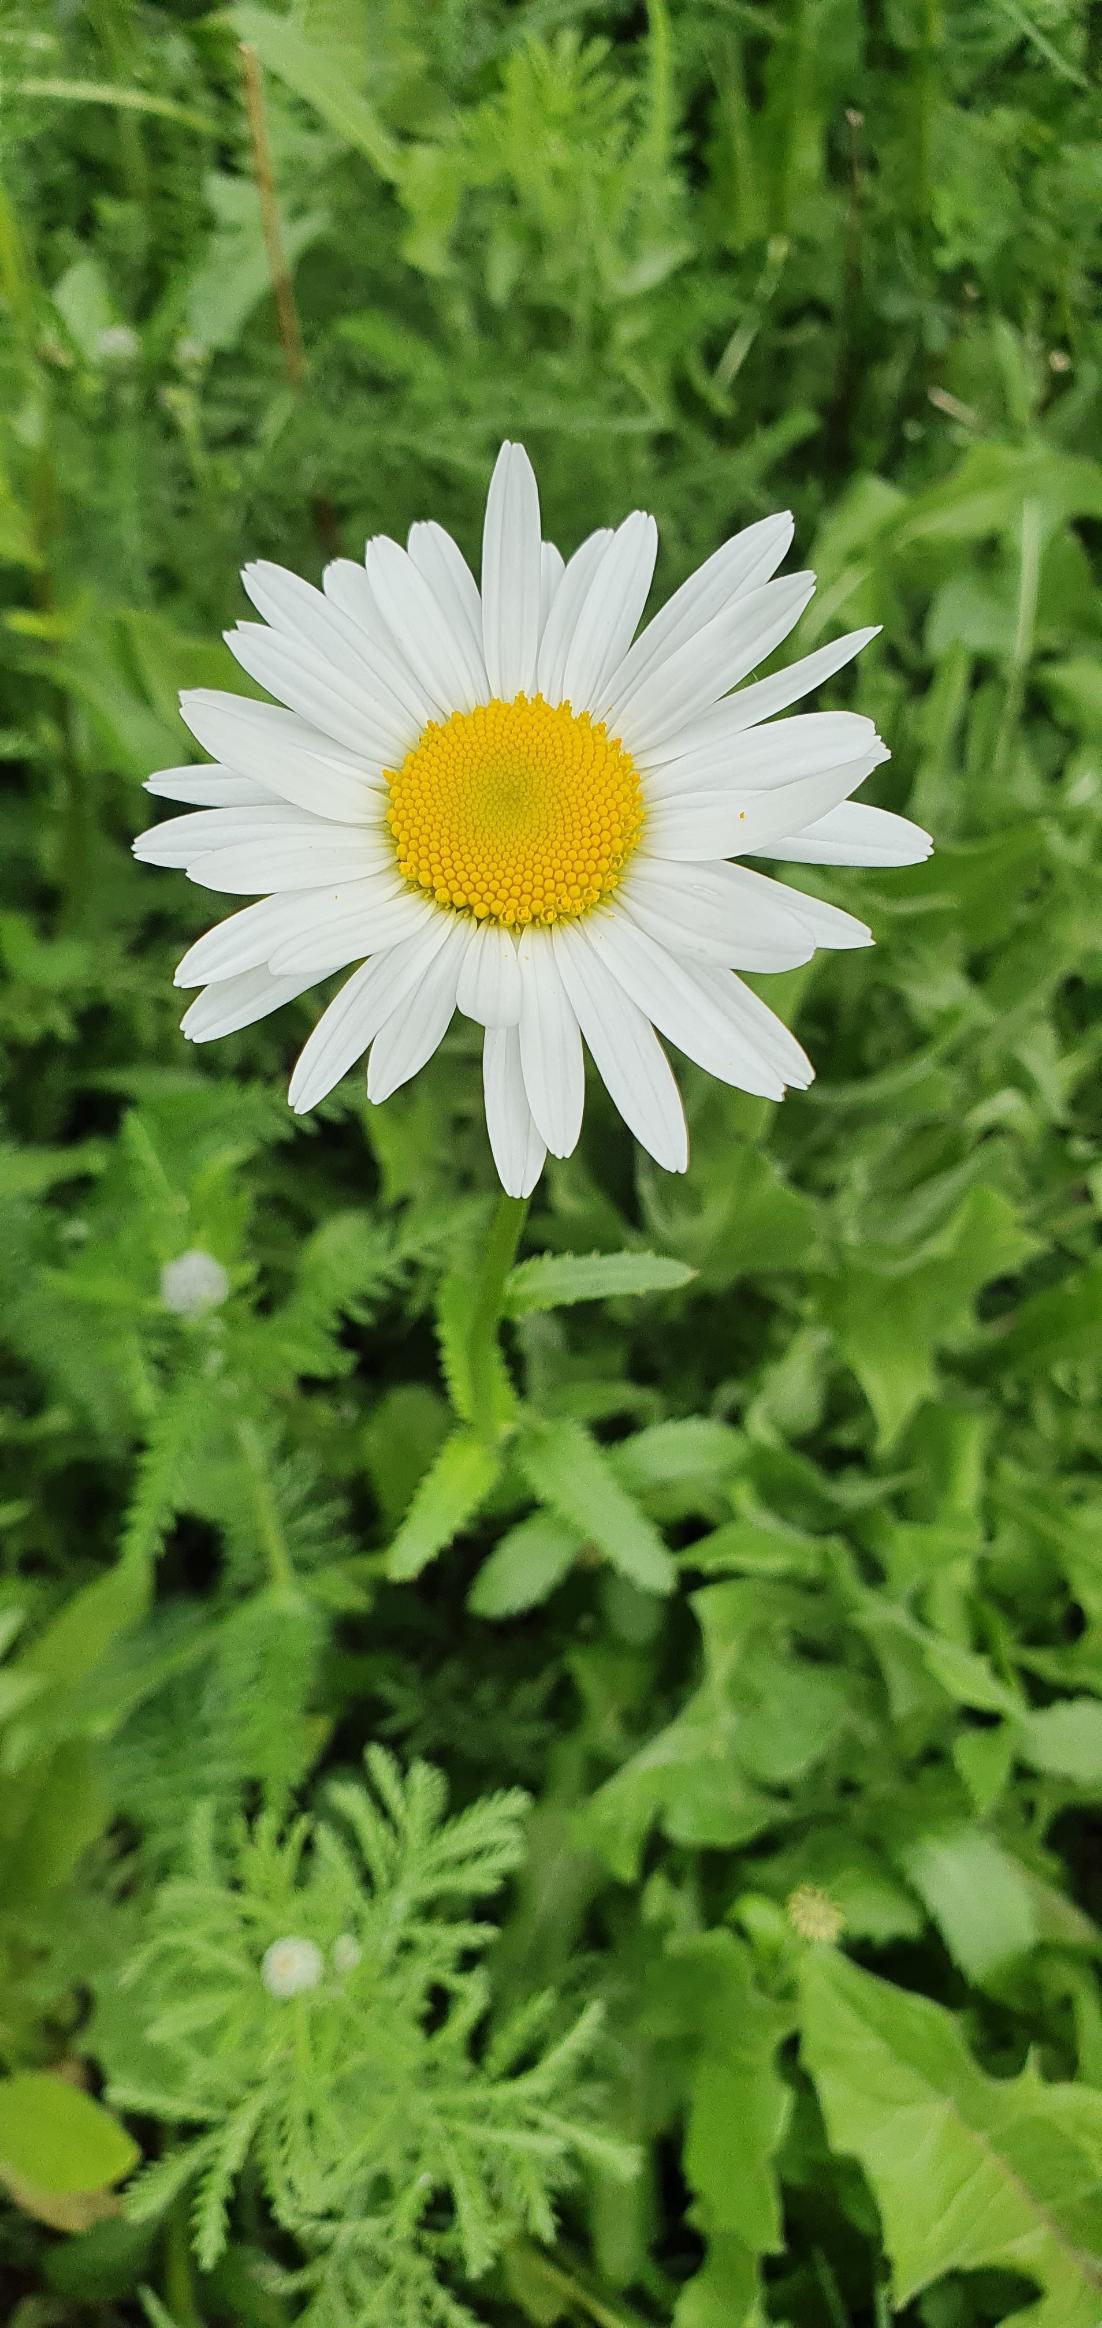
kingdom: Plantae
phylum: Tracheophyta
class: Magnoliopsida
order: Asterales
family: Asteraceae
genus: Leucanthemum
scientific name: Leucanthemum vulgare
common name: Hvid okseøje
